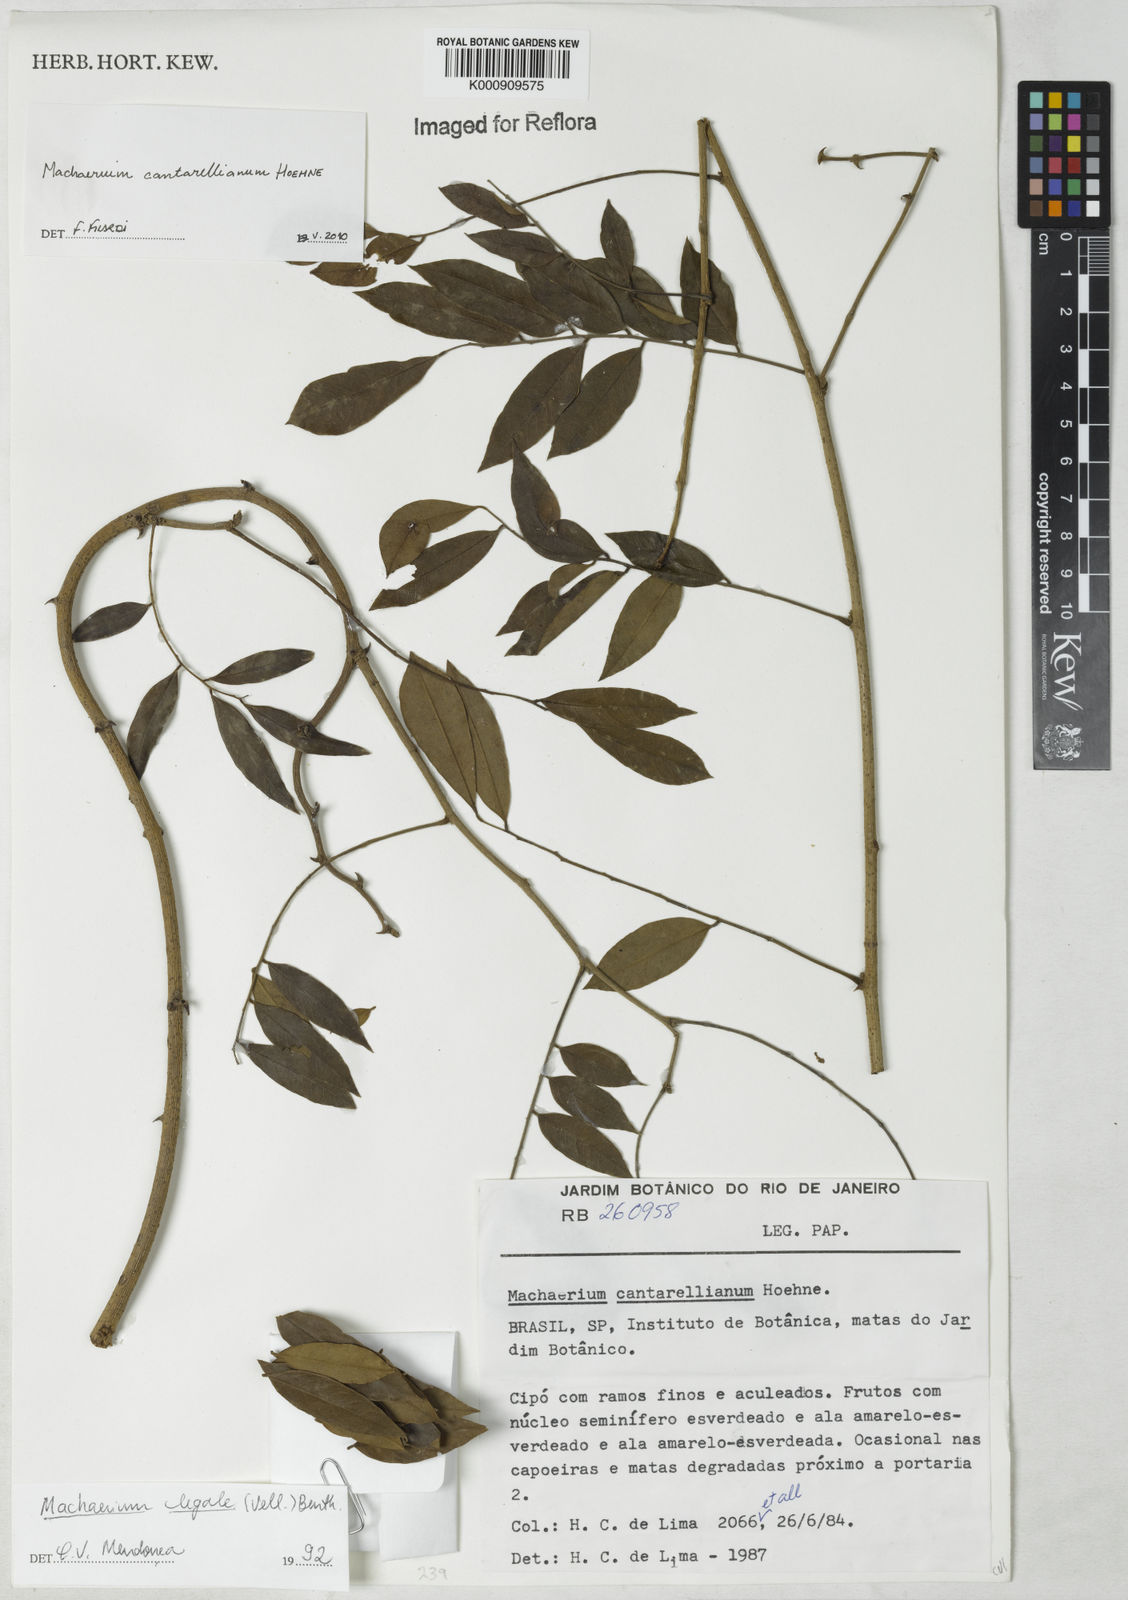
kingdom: Plantae
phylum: Tracheophyta
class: Magnoliopsida
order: Fabales
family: Fabaceae
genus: Machaerium
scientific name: Machaerium cantarellianum
